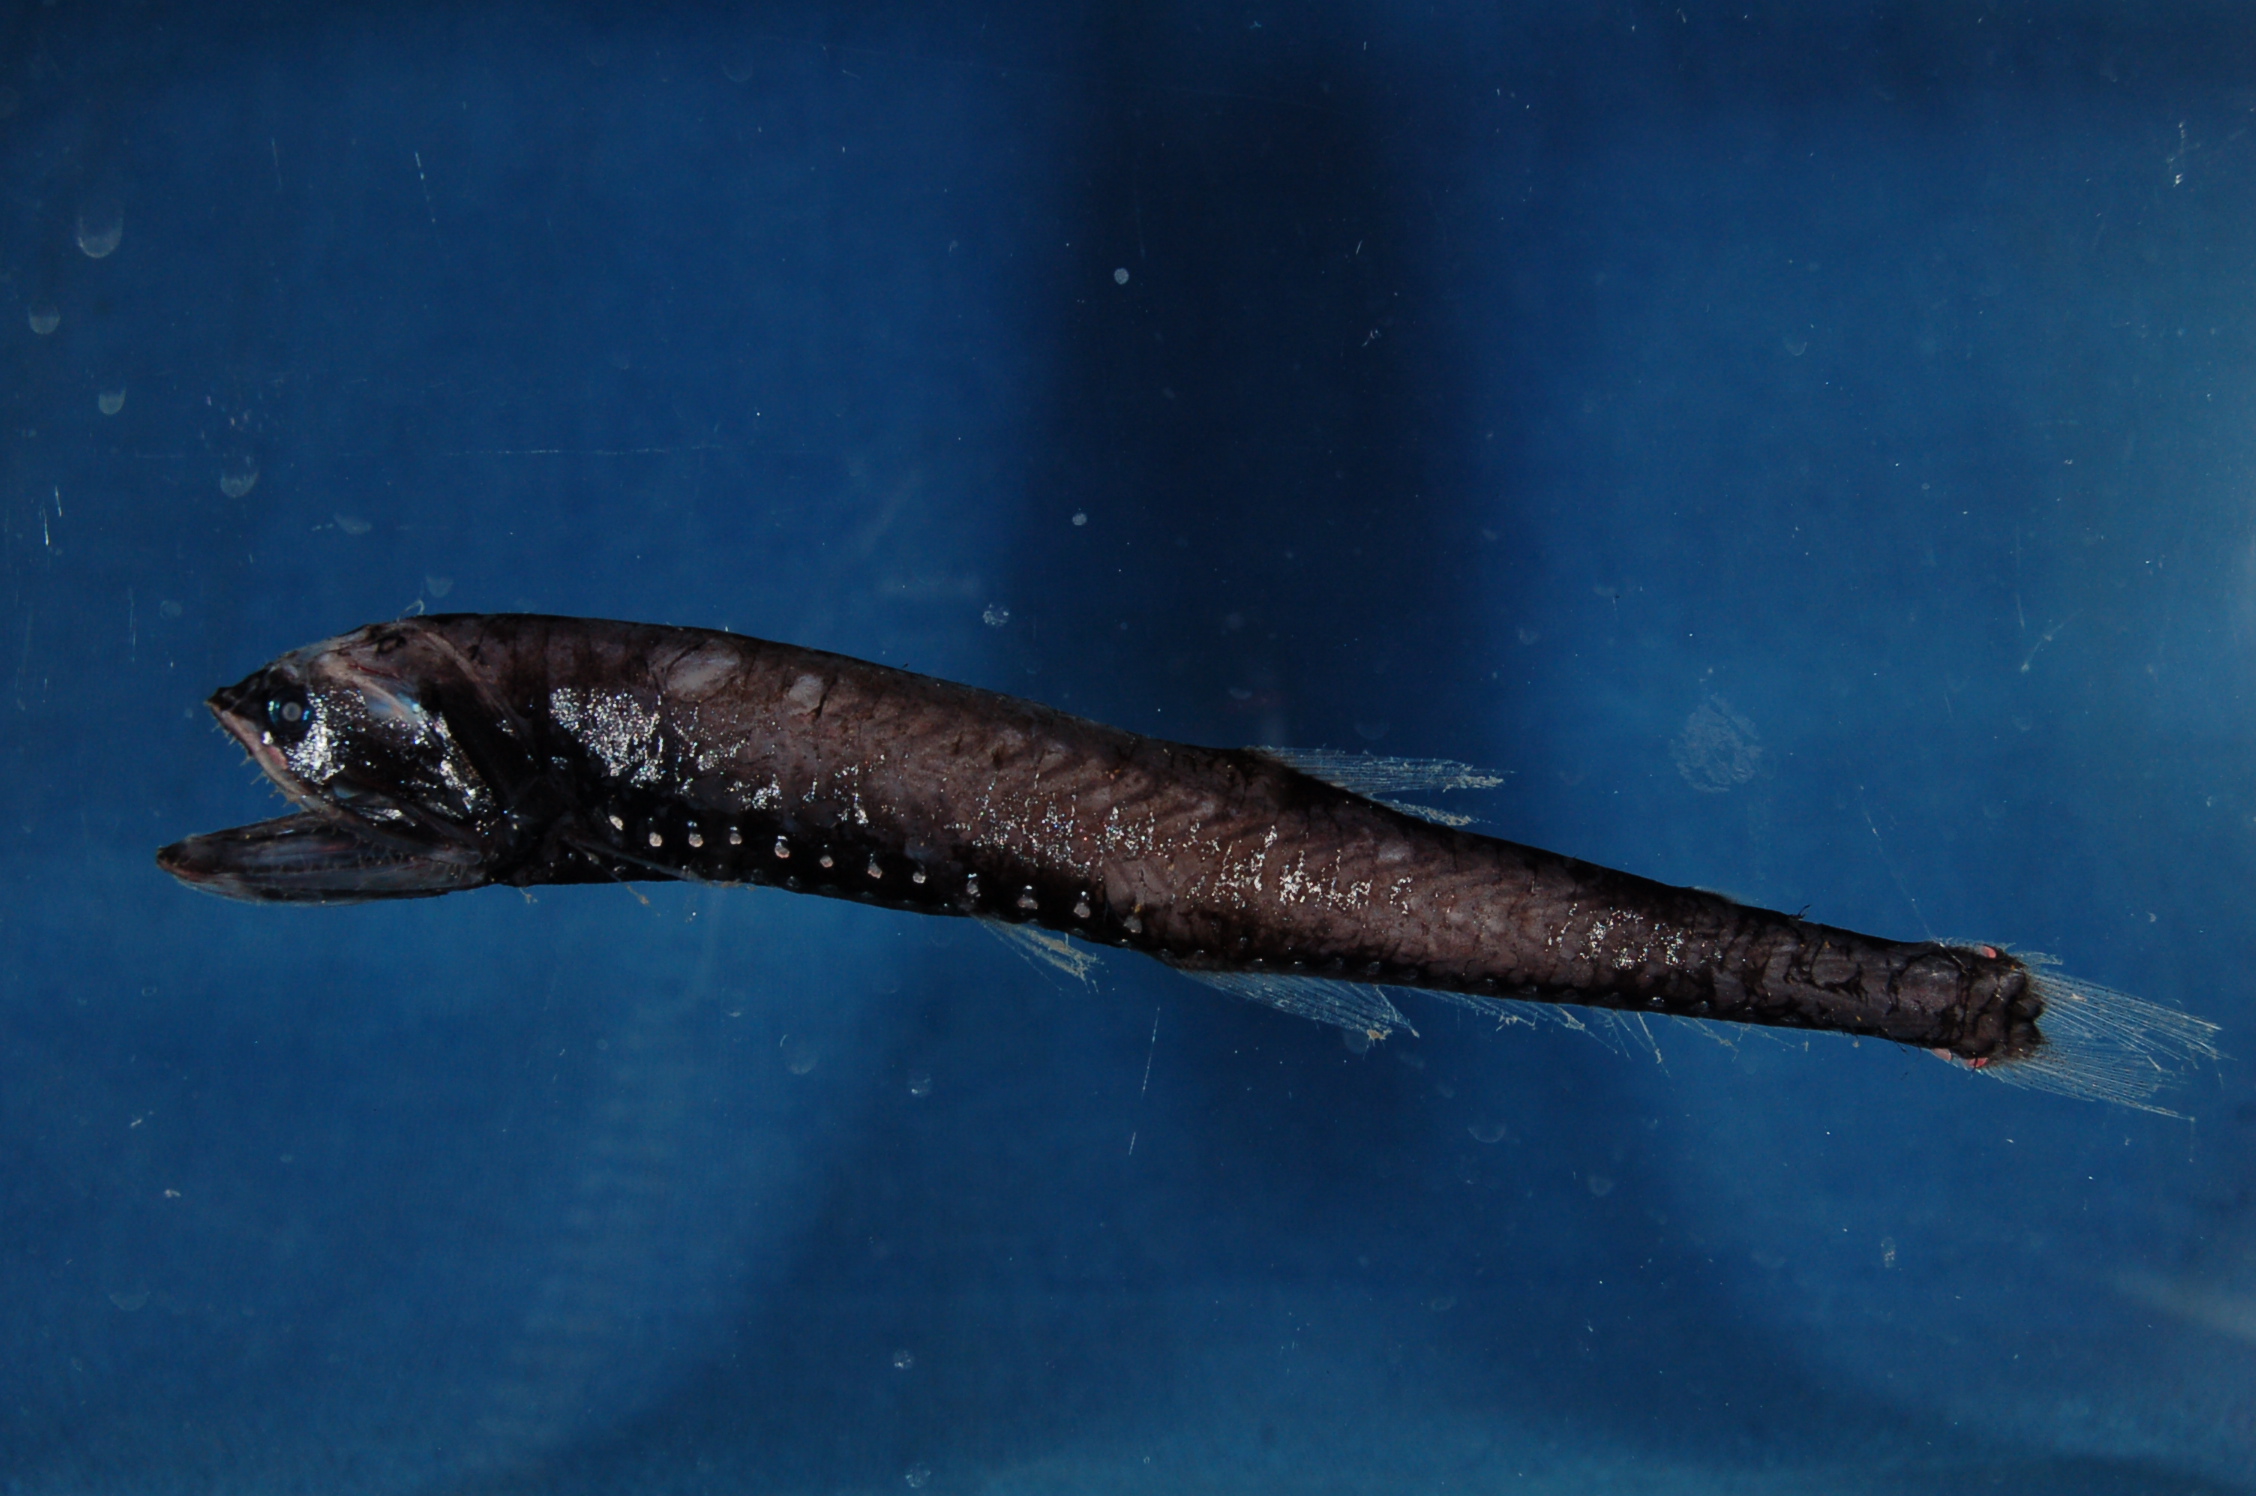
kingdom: Animalia
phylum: Chordata
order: Stomiiformes
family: Stomiidae
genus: Melanostomias
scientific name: Melanostomias
